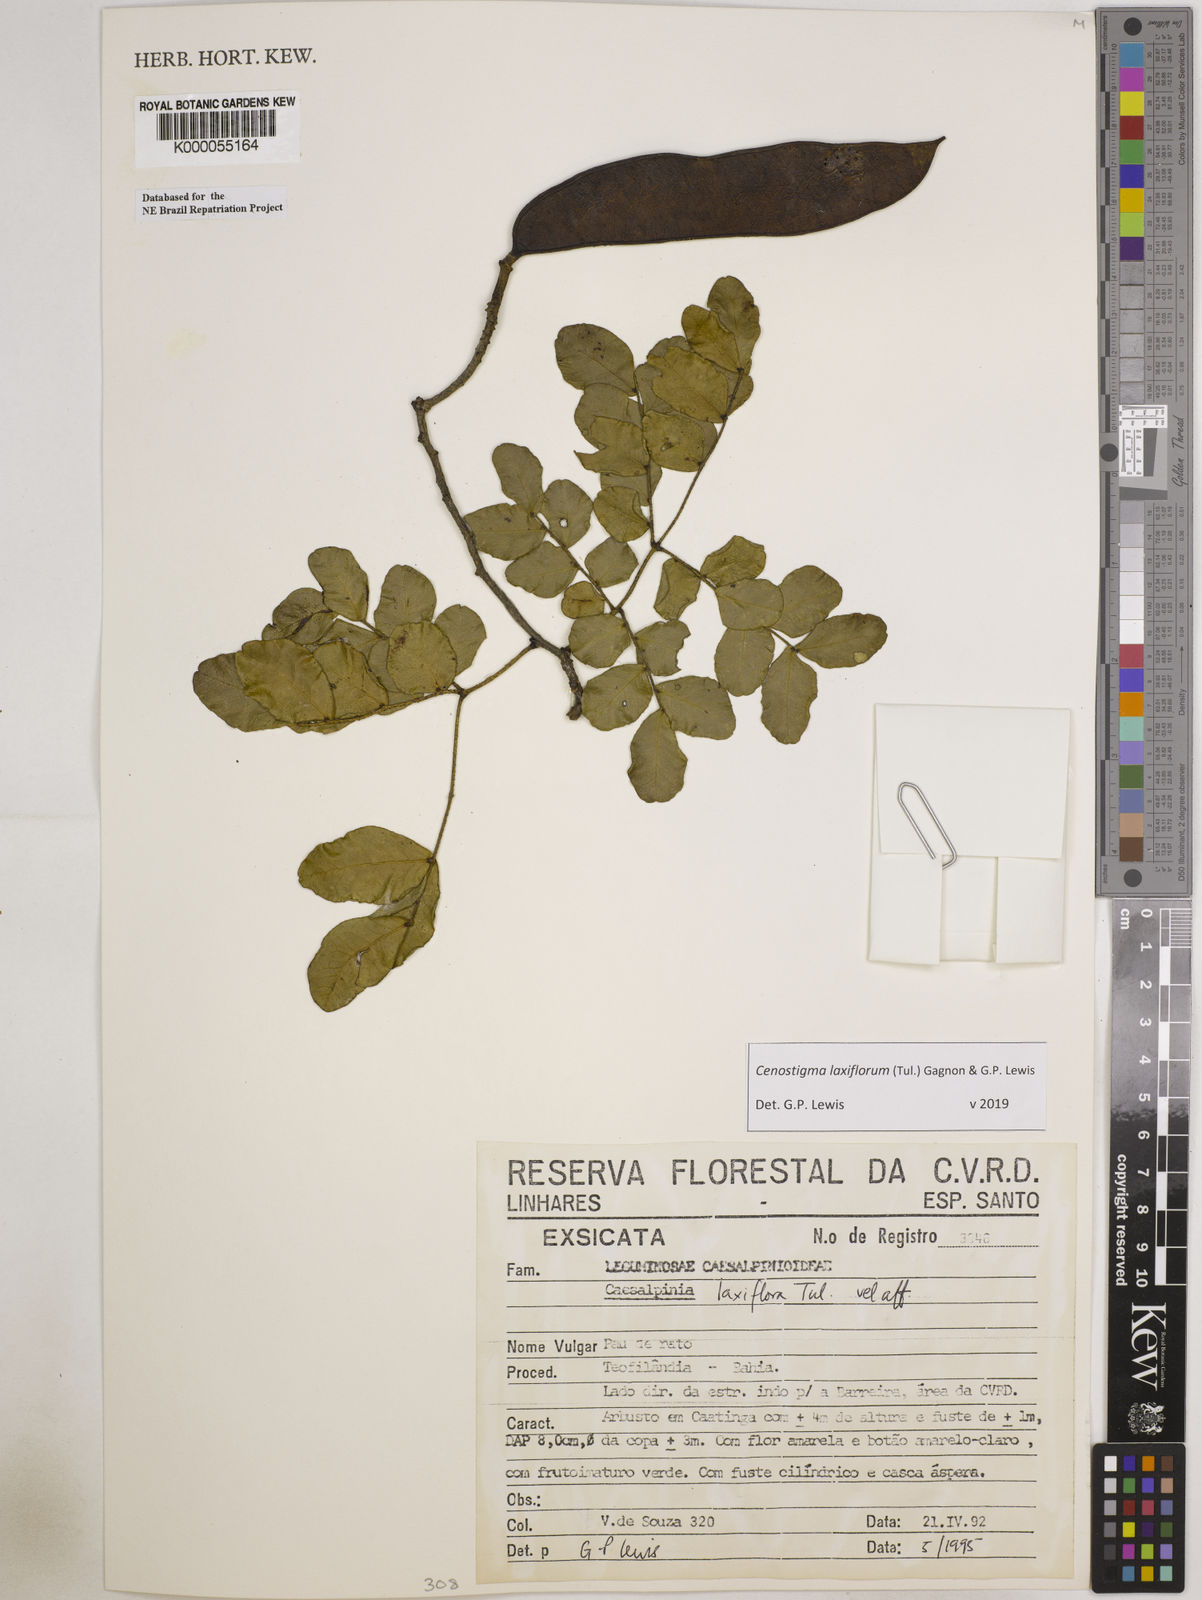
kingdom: Plantae
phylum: Tracheophyta
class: Magnoliopsida
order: Fabales
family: Fabaceae
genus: Cenostigma
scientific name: Cenostigma laxiflorum
